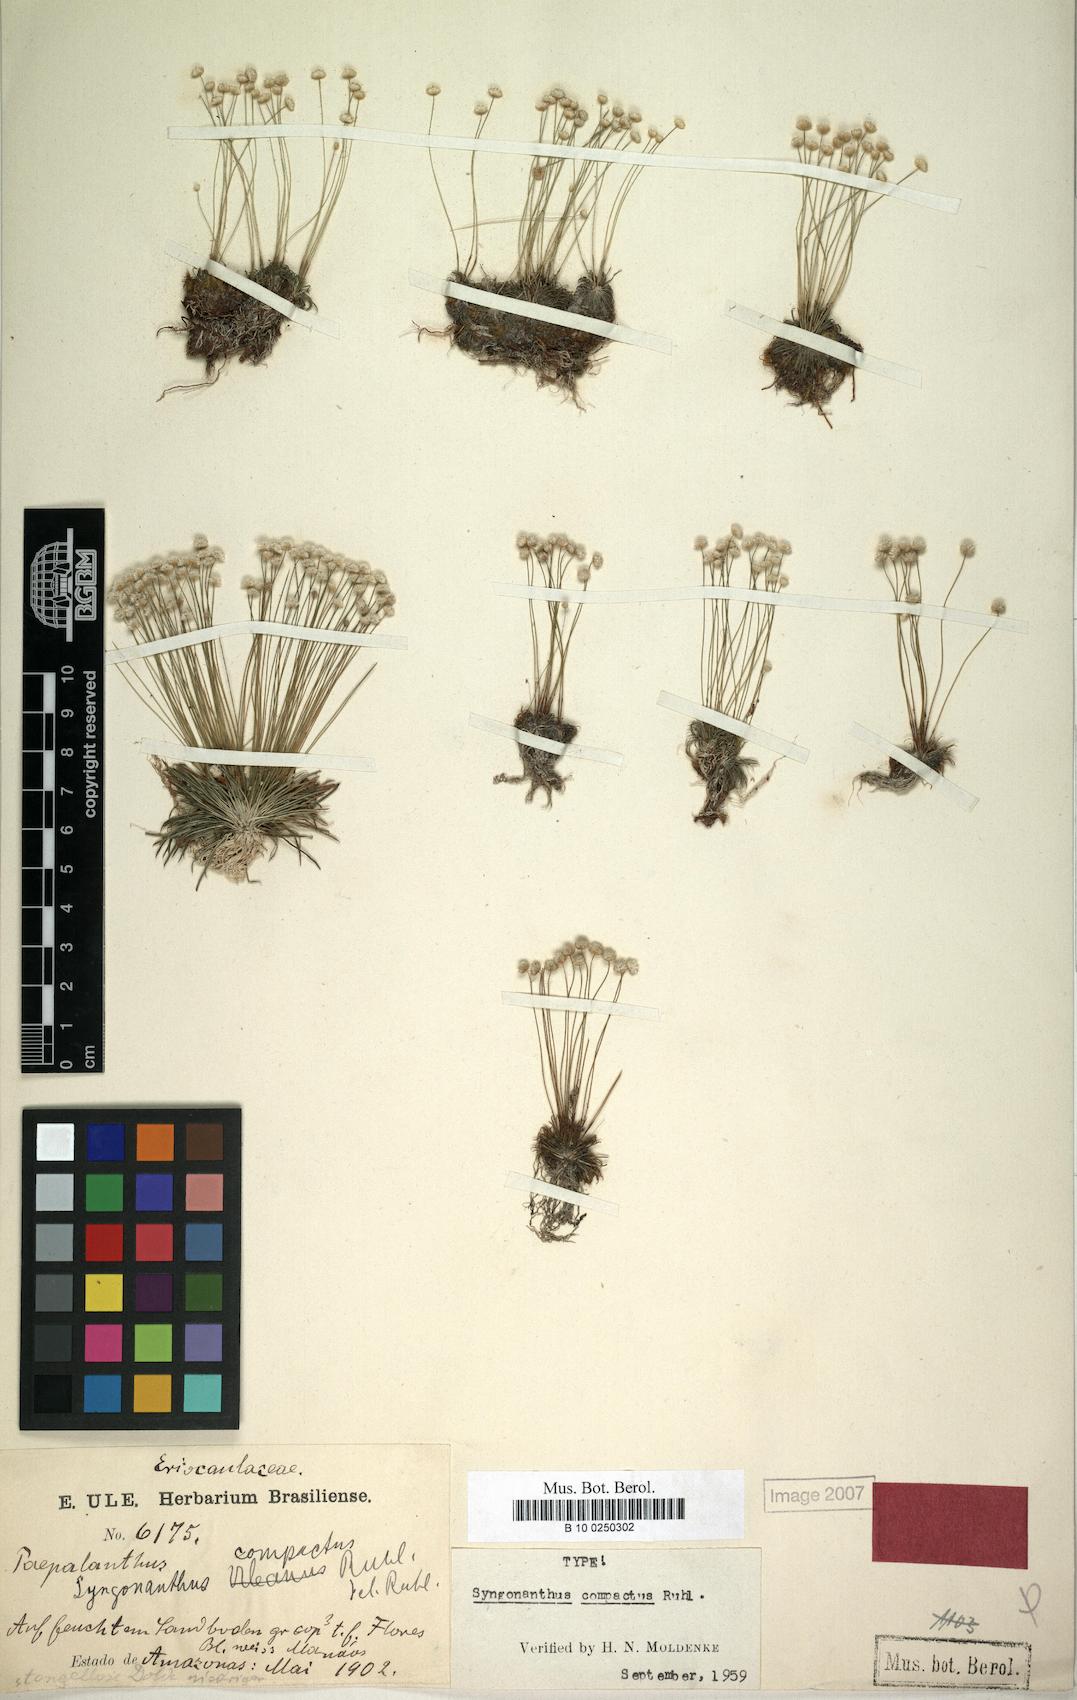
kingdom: Plantae
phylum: Tracheophyta
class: Liliopsida
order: Poales
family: Eriocaulaceae
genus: Syngonanthus
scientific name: Syngonanthus compactus
